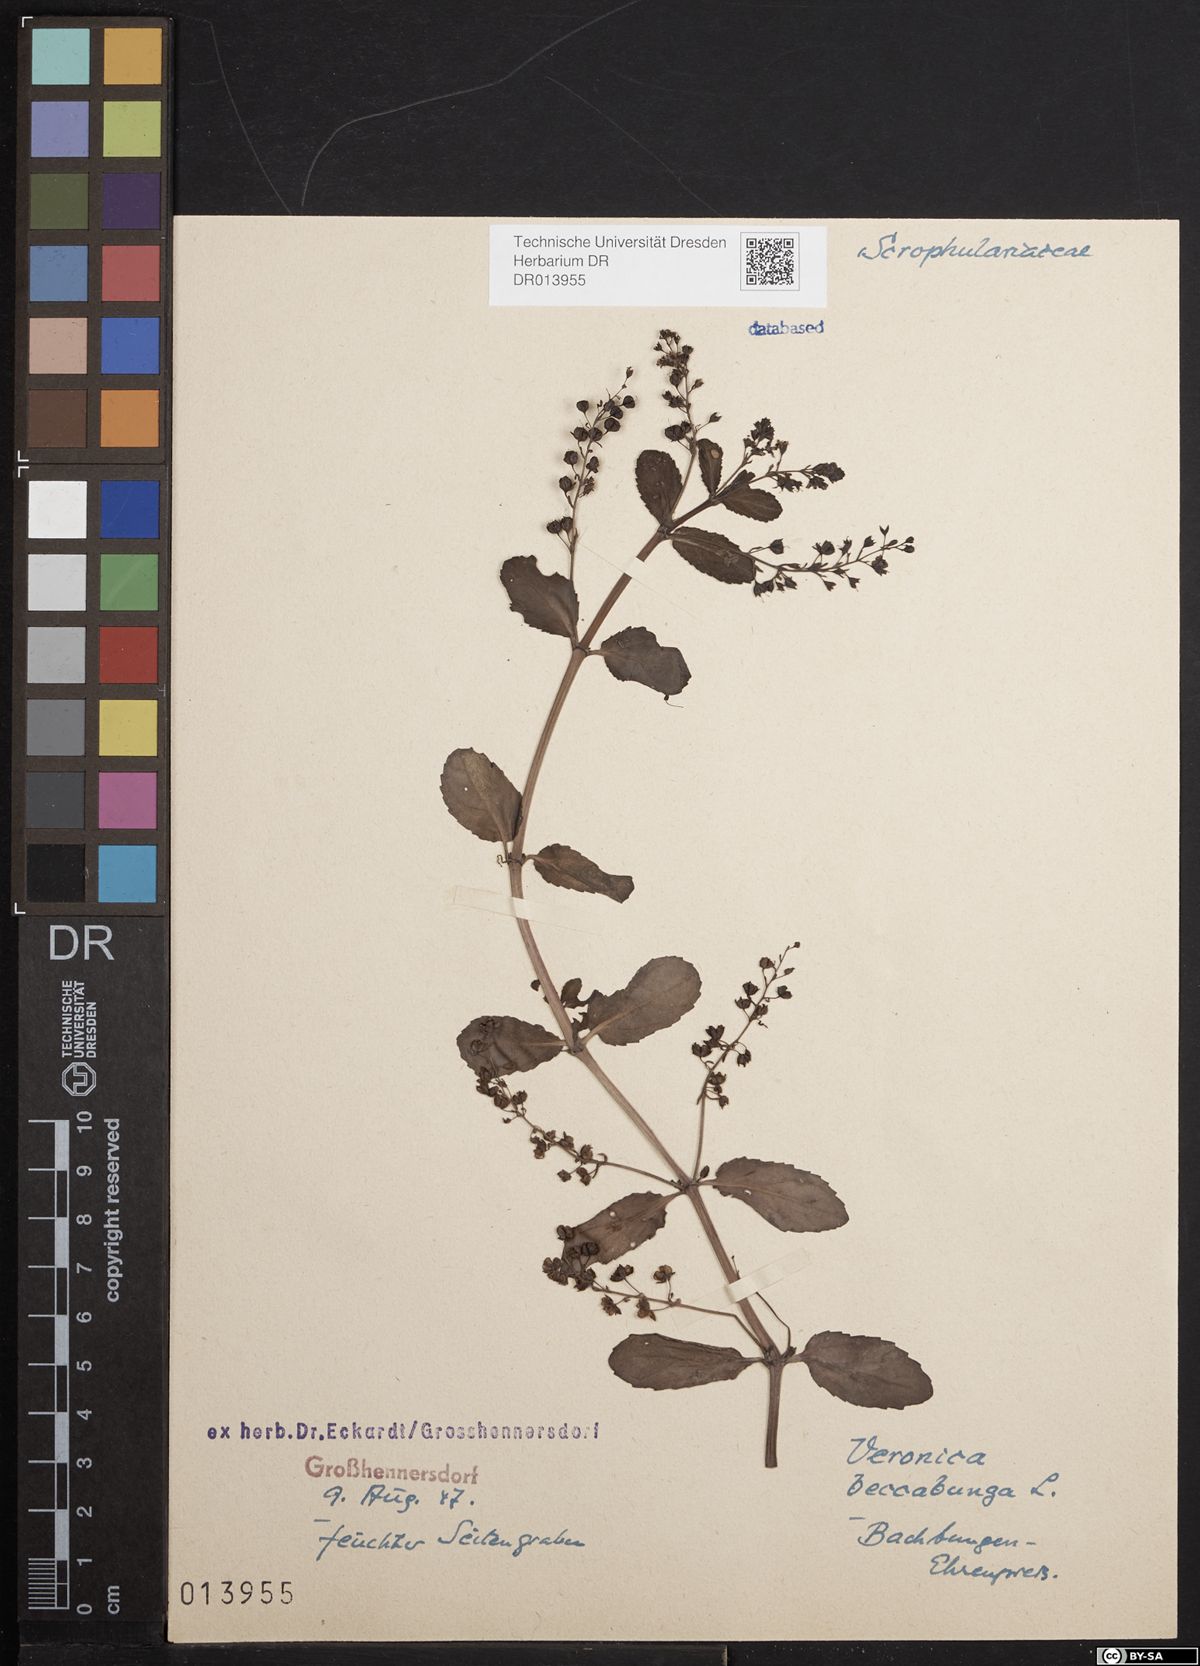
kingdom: Plantae
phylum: Tracheophyta
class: Magnoliopsida
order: Lamiales
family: Plantaginaceae
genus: Veronica
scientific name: Veronica beccabunga
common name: Brooklime
